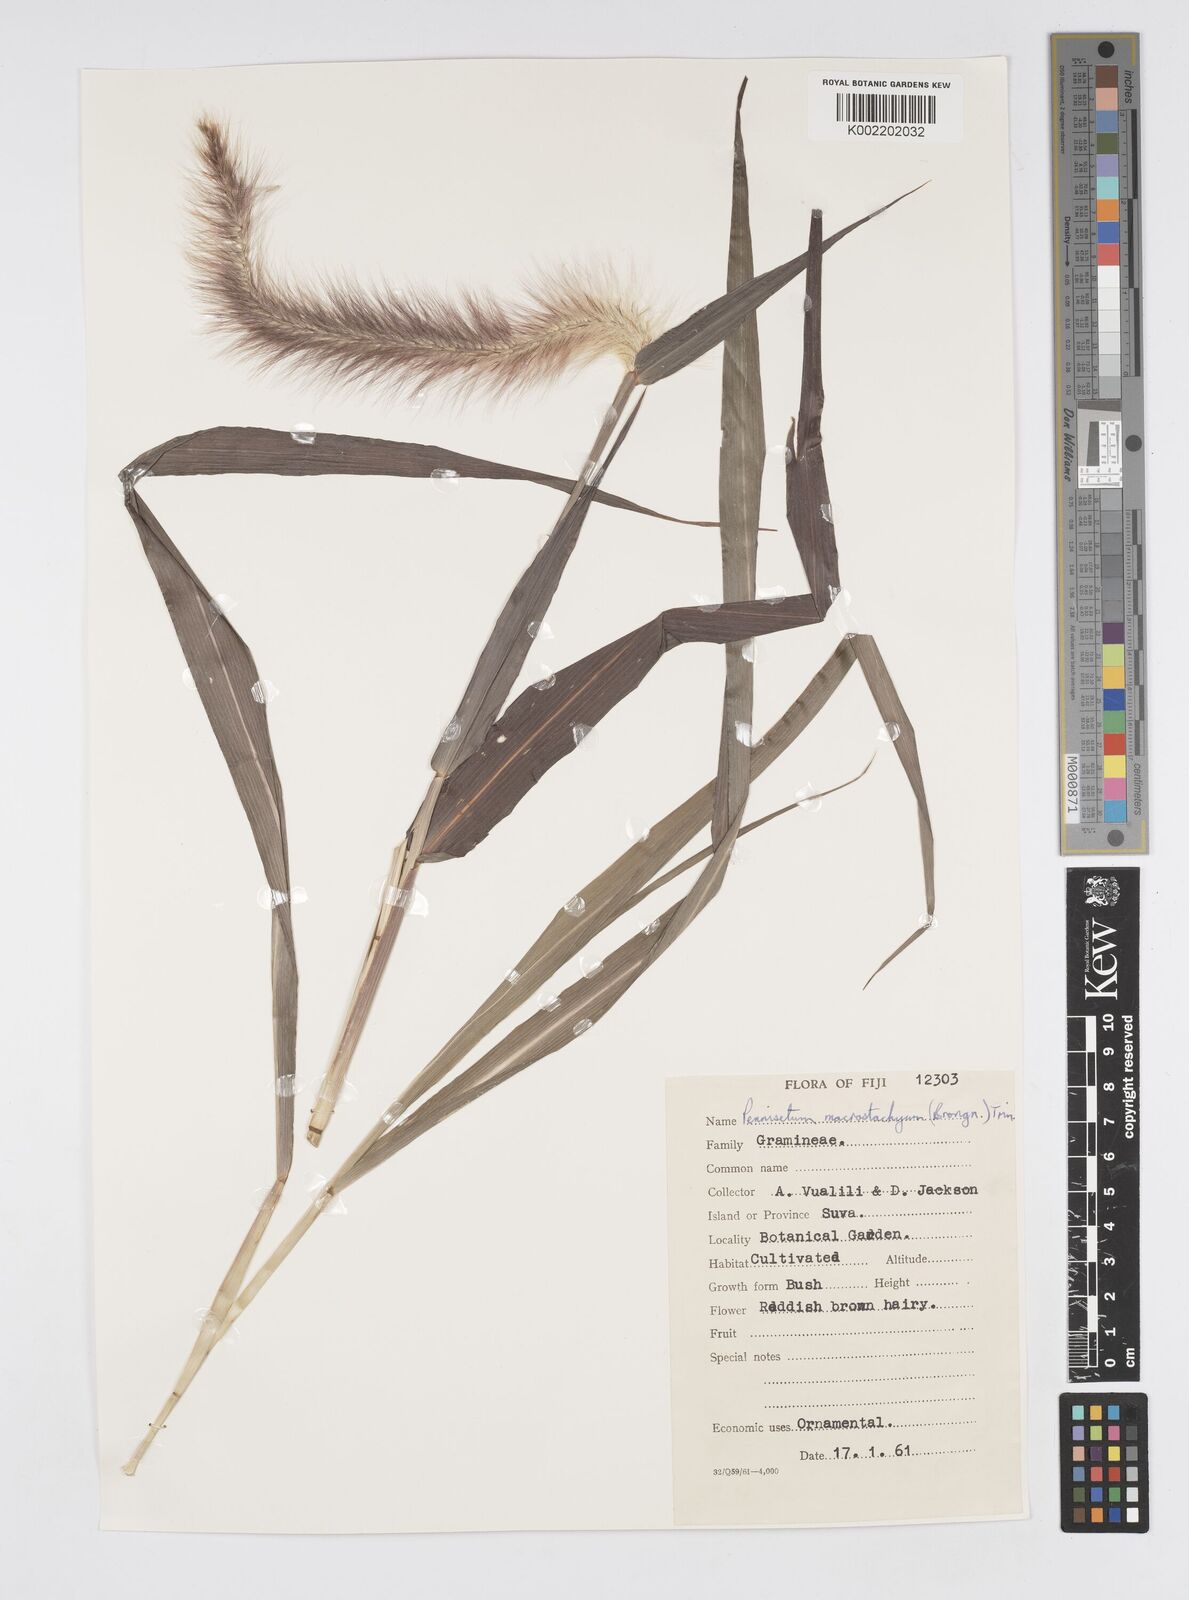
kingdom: Plantae
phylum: Tracheophyta
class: Liliopsida
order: Poales
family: Poaceae
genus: Cenchrus
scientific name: Cenchrus purpureus
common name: Elephant grass
